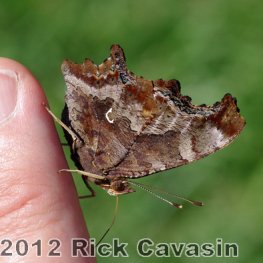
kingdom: Animalia
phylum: Arthropoda
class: Insecta
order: Lepidoptera
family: Nymphalidae
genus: Polygonia
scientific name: Polygonia comma
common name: Eastern Comma
